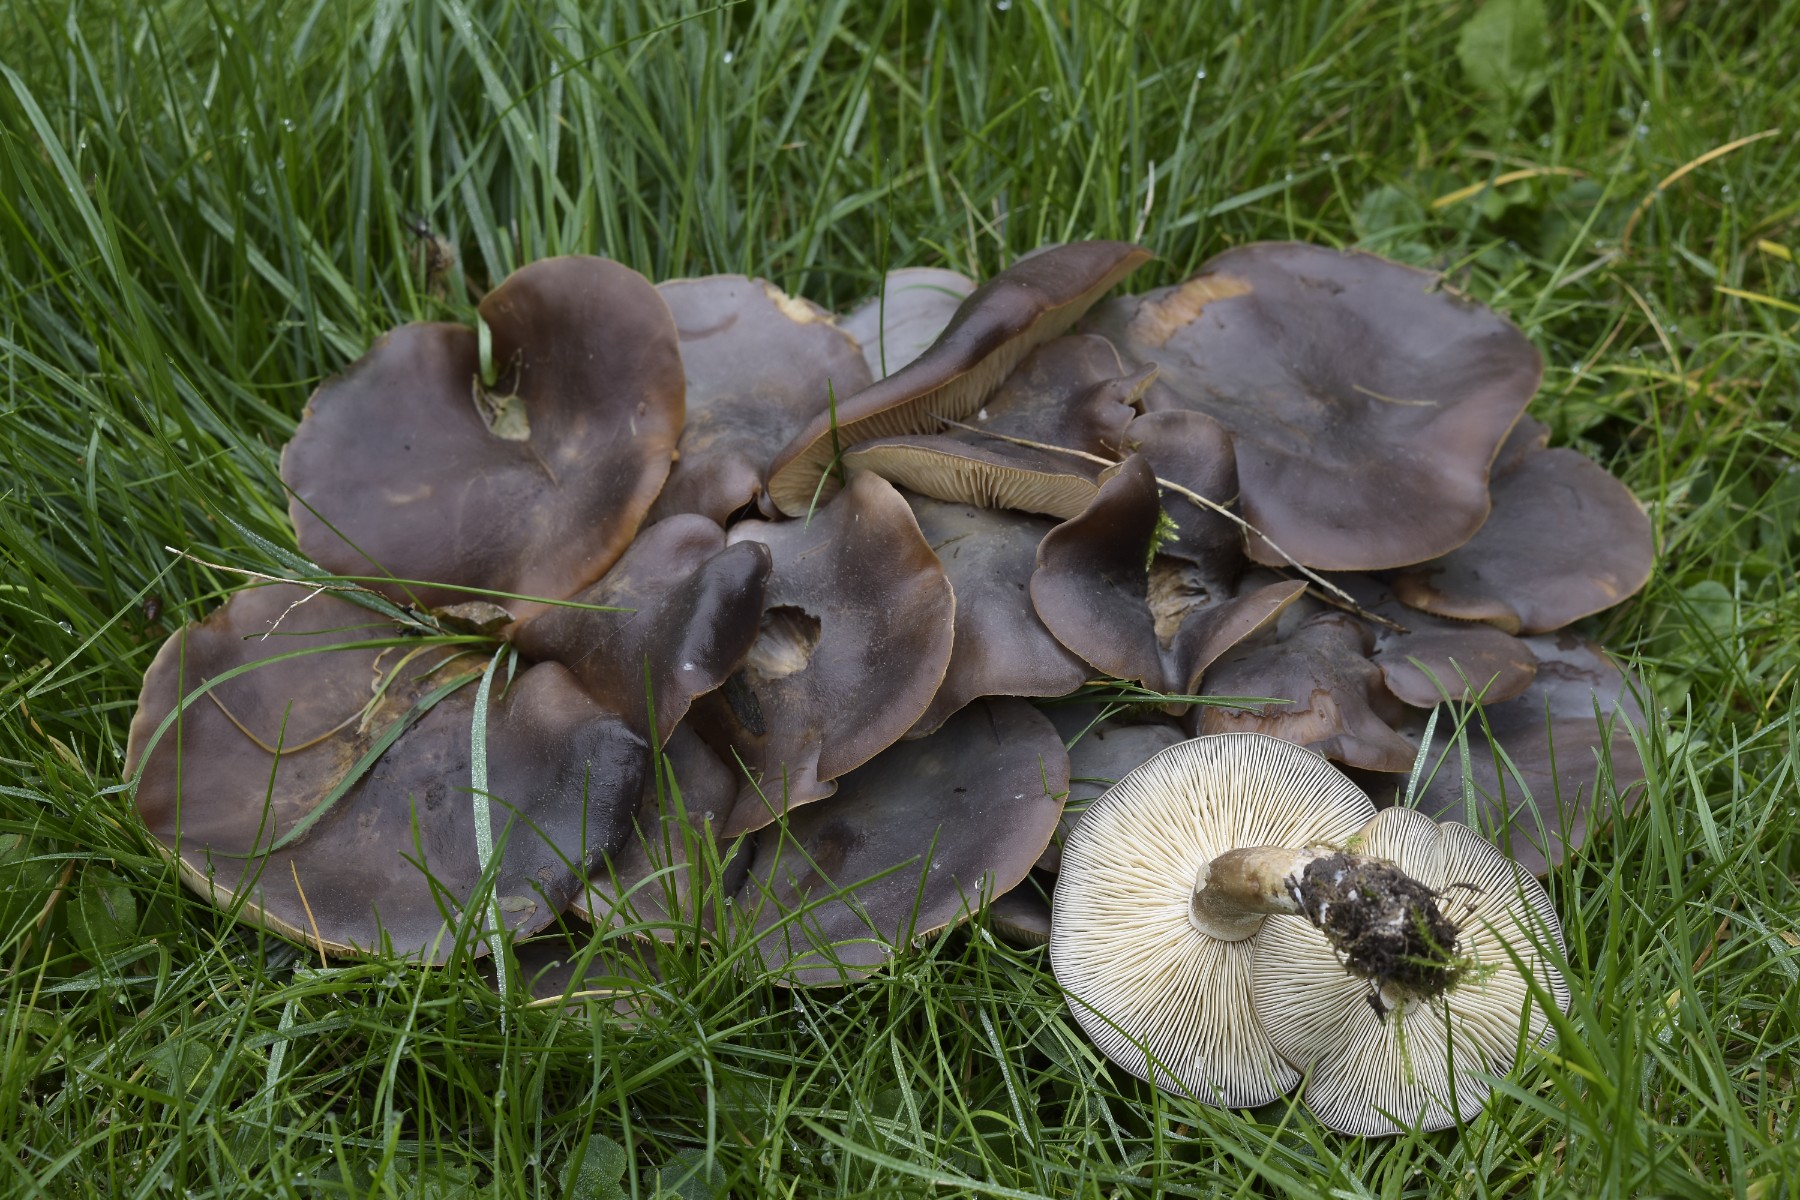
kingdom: Fungi
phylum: Basidiomycota
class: Agaricomycetes
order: Agaricales
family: Lyophyllaceae
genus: Lyophyllum
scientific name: Lyophyllum decastes
